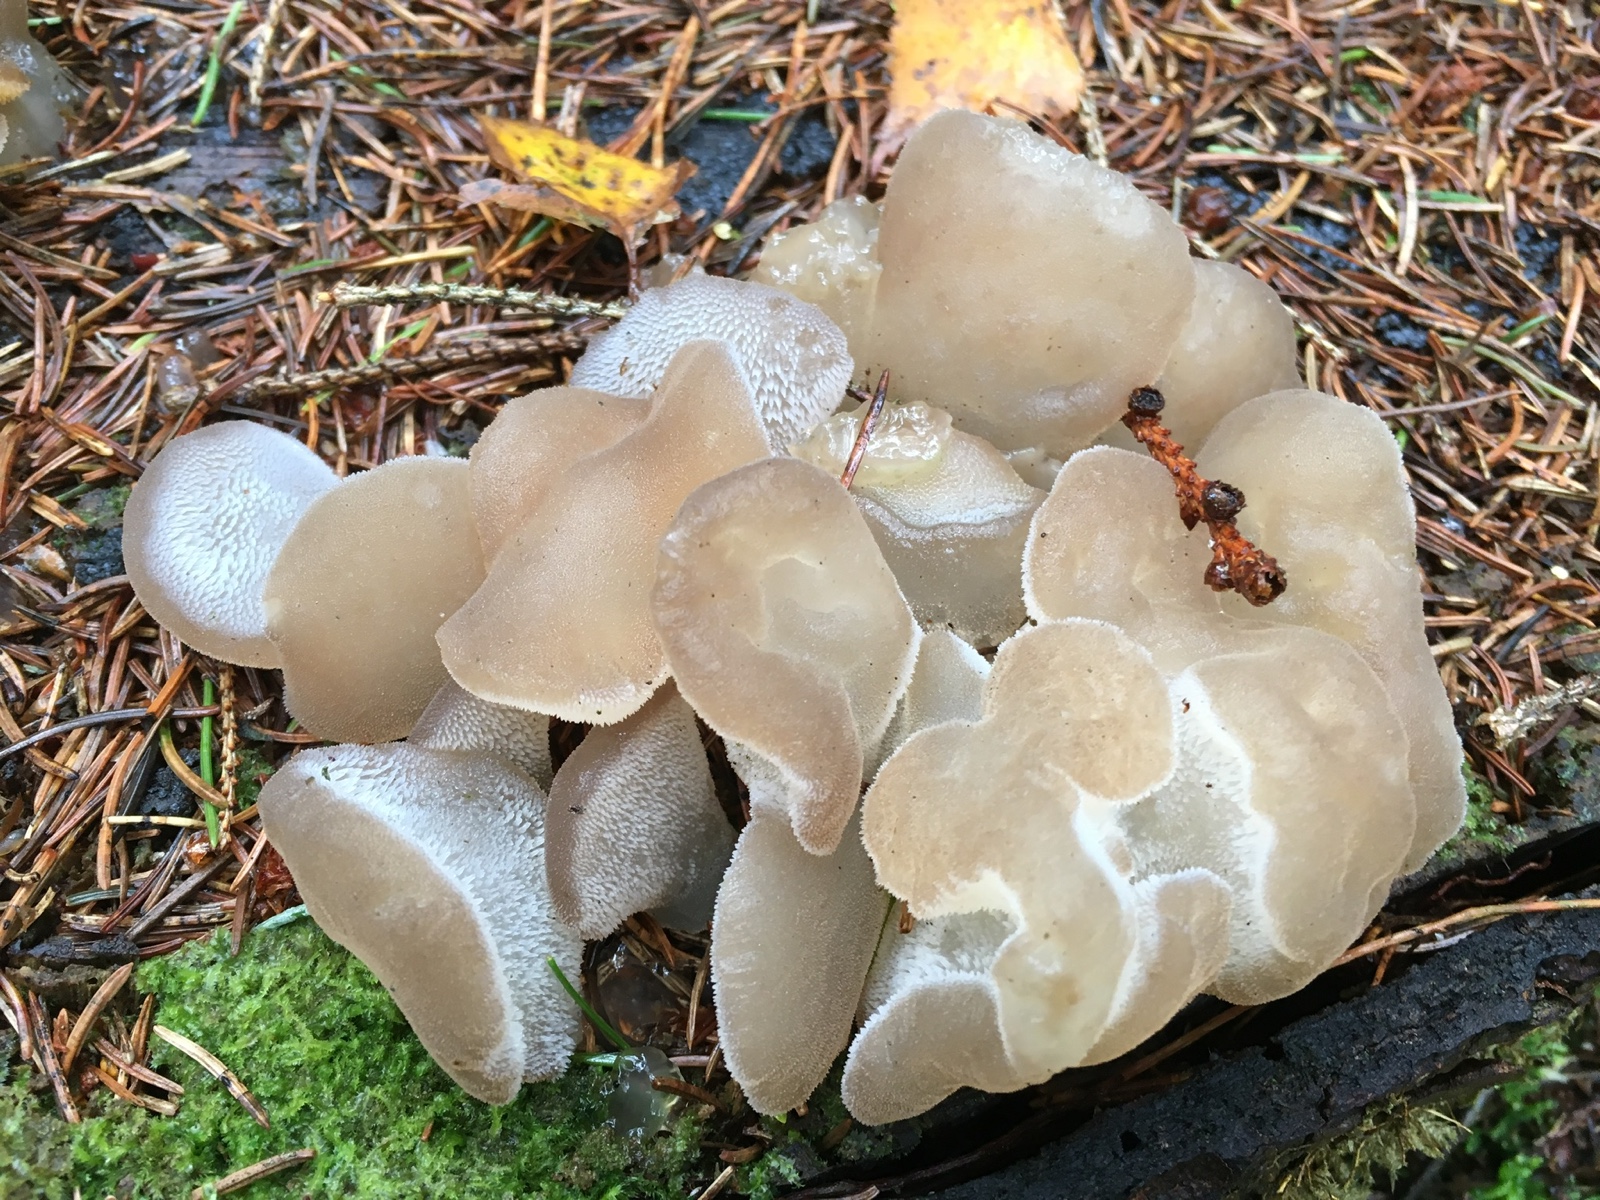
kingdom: Fungi
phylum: Basidiomycota
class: Agaricomycetes
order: Auriculariales
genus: Pseudohydnum
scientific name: Pseudohydnum gelatinosum
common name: bævretand
